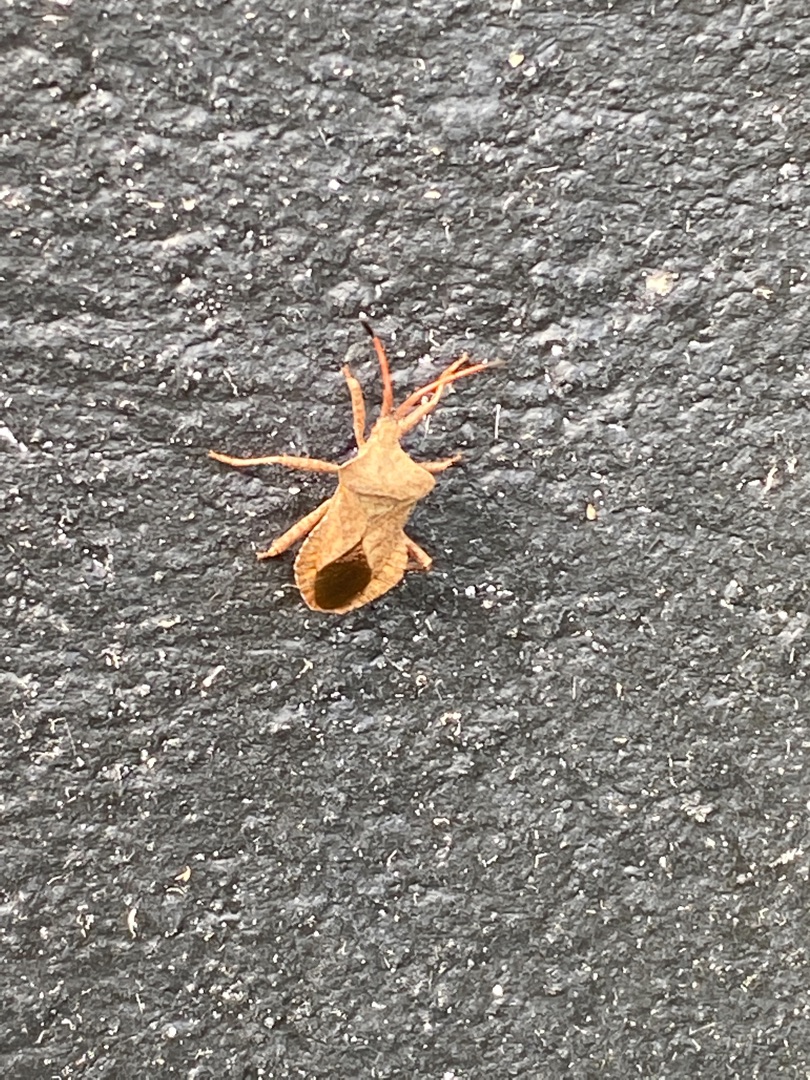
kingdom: Animalia
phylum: Arthropoda
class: Insecta
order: Hemiptera
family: Coreidae
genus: Coreus
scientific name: Coreus marginatus
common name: Skræppetæge
